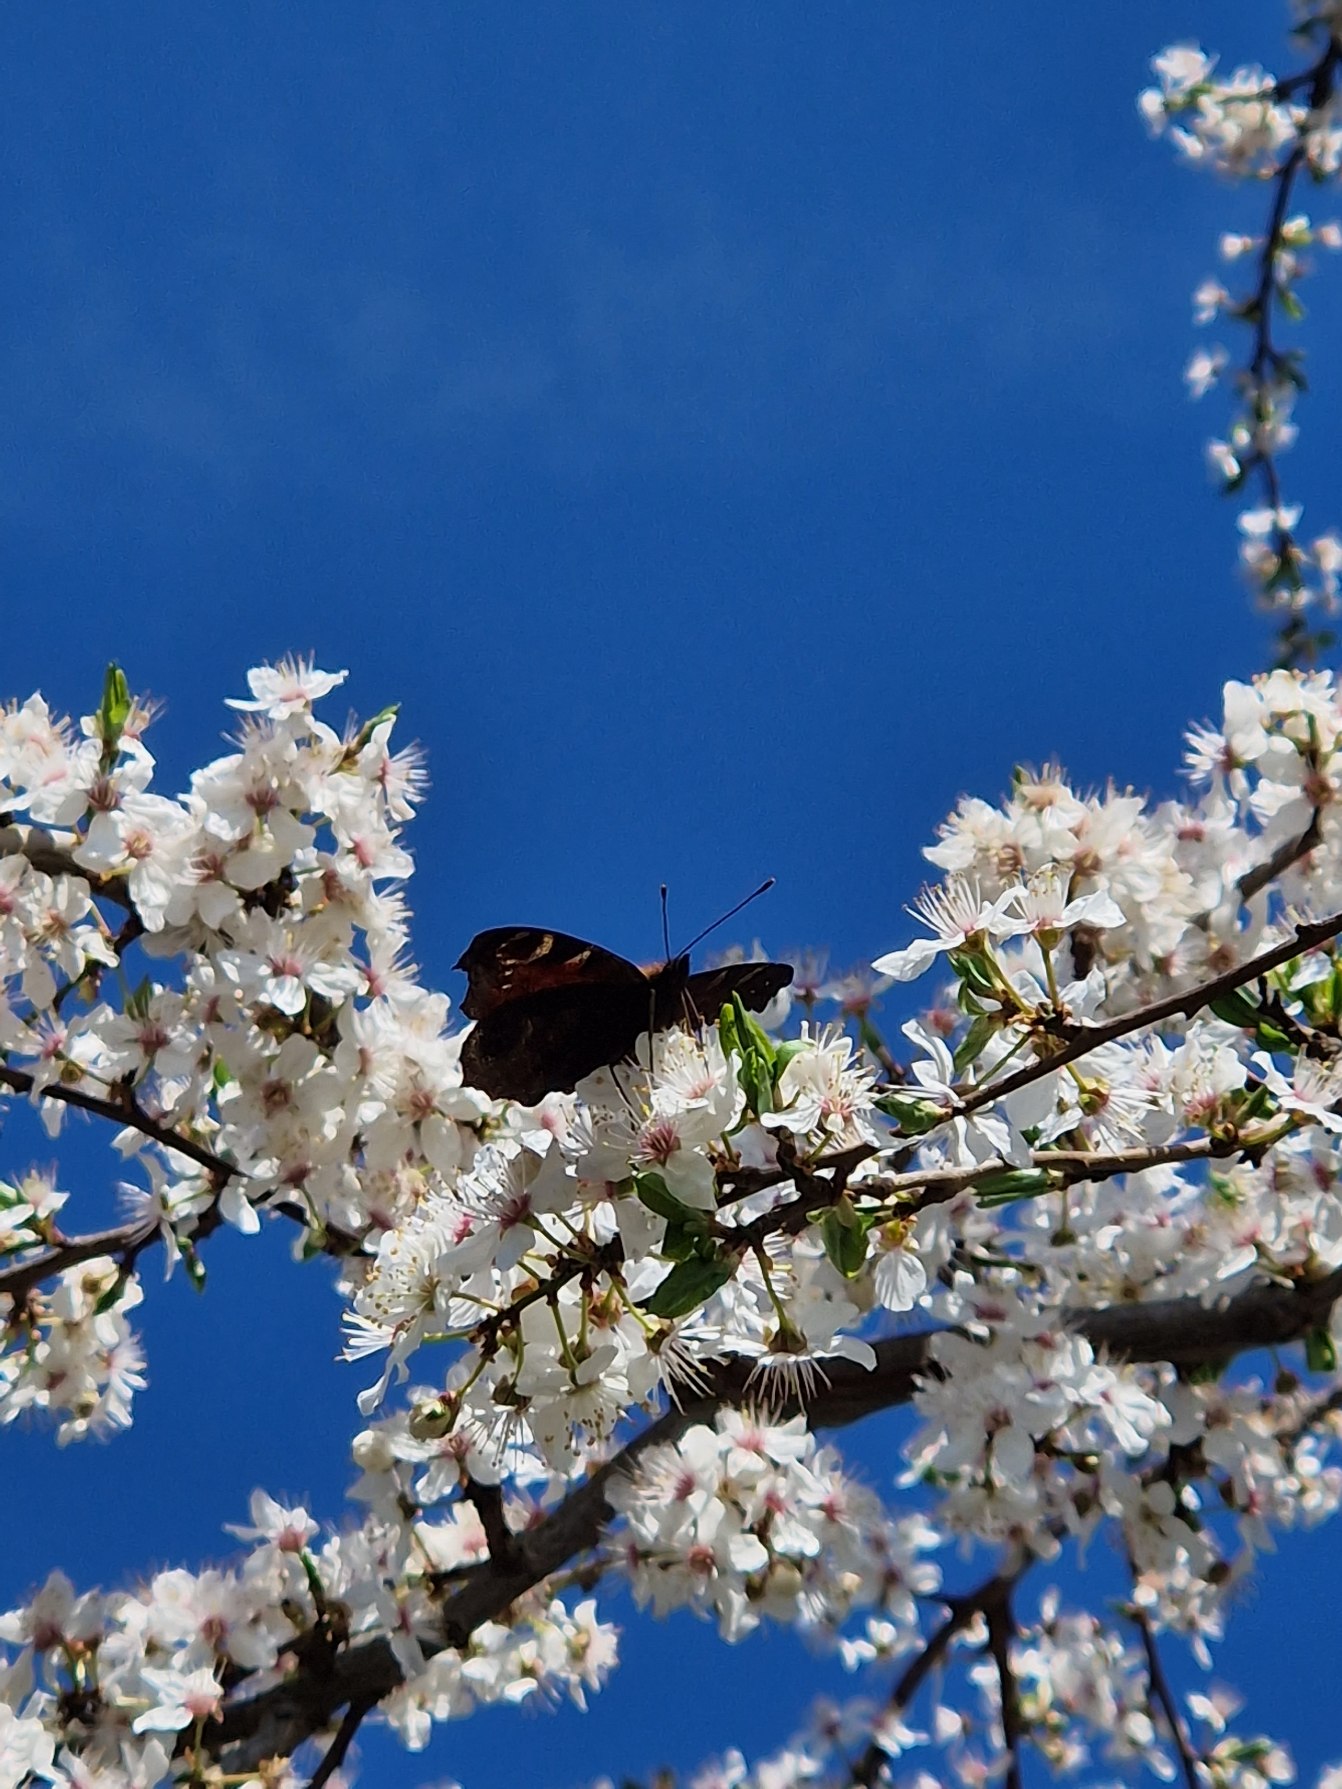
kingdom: Animalia
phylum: Arthropoda
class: Insecta
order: Lepidoptera
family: Nymphalidae
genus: Aglais
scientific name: Aglais io
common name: Dagpåfugleøje
